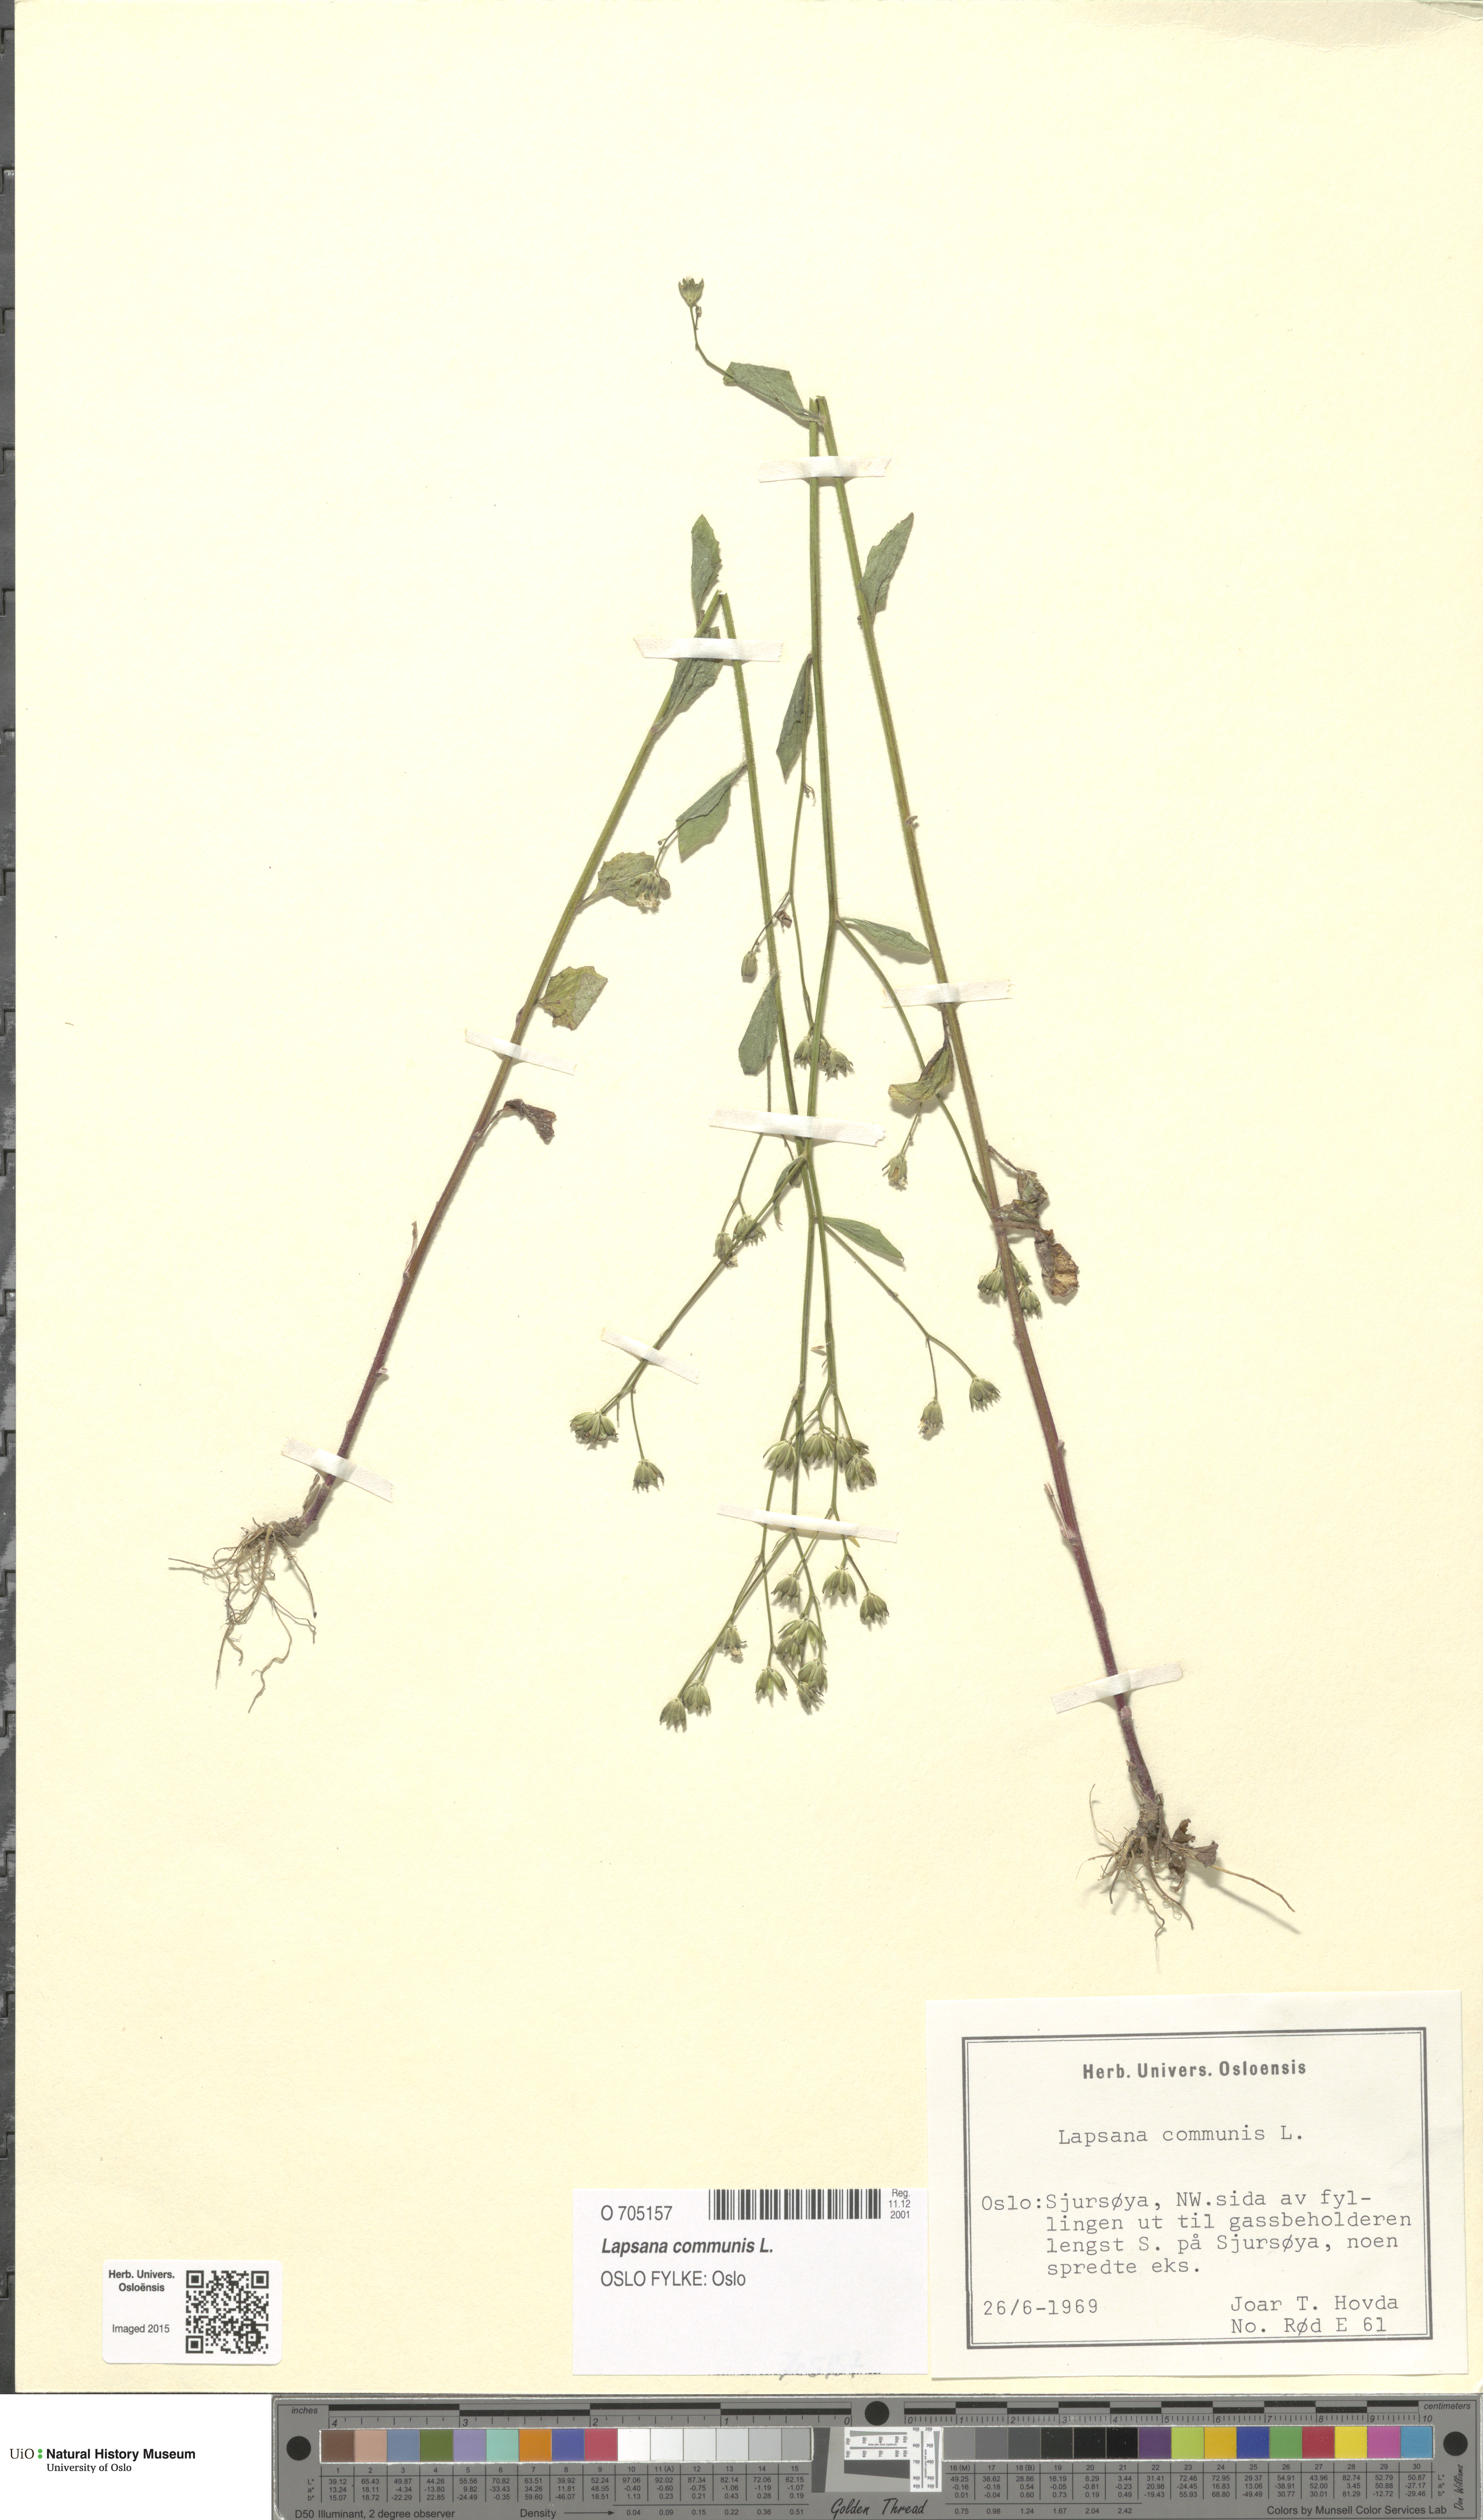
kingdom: Plantae
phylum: Tracheophyta
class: Magnoliopsida
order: Asterales
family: Asteraceae
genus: Lapsana
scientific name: Lapsana communis
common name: Nipplewort
